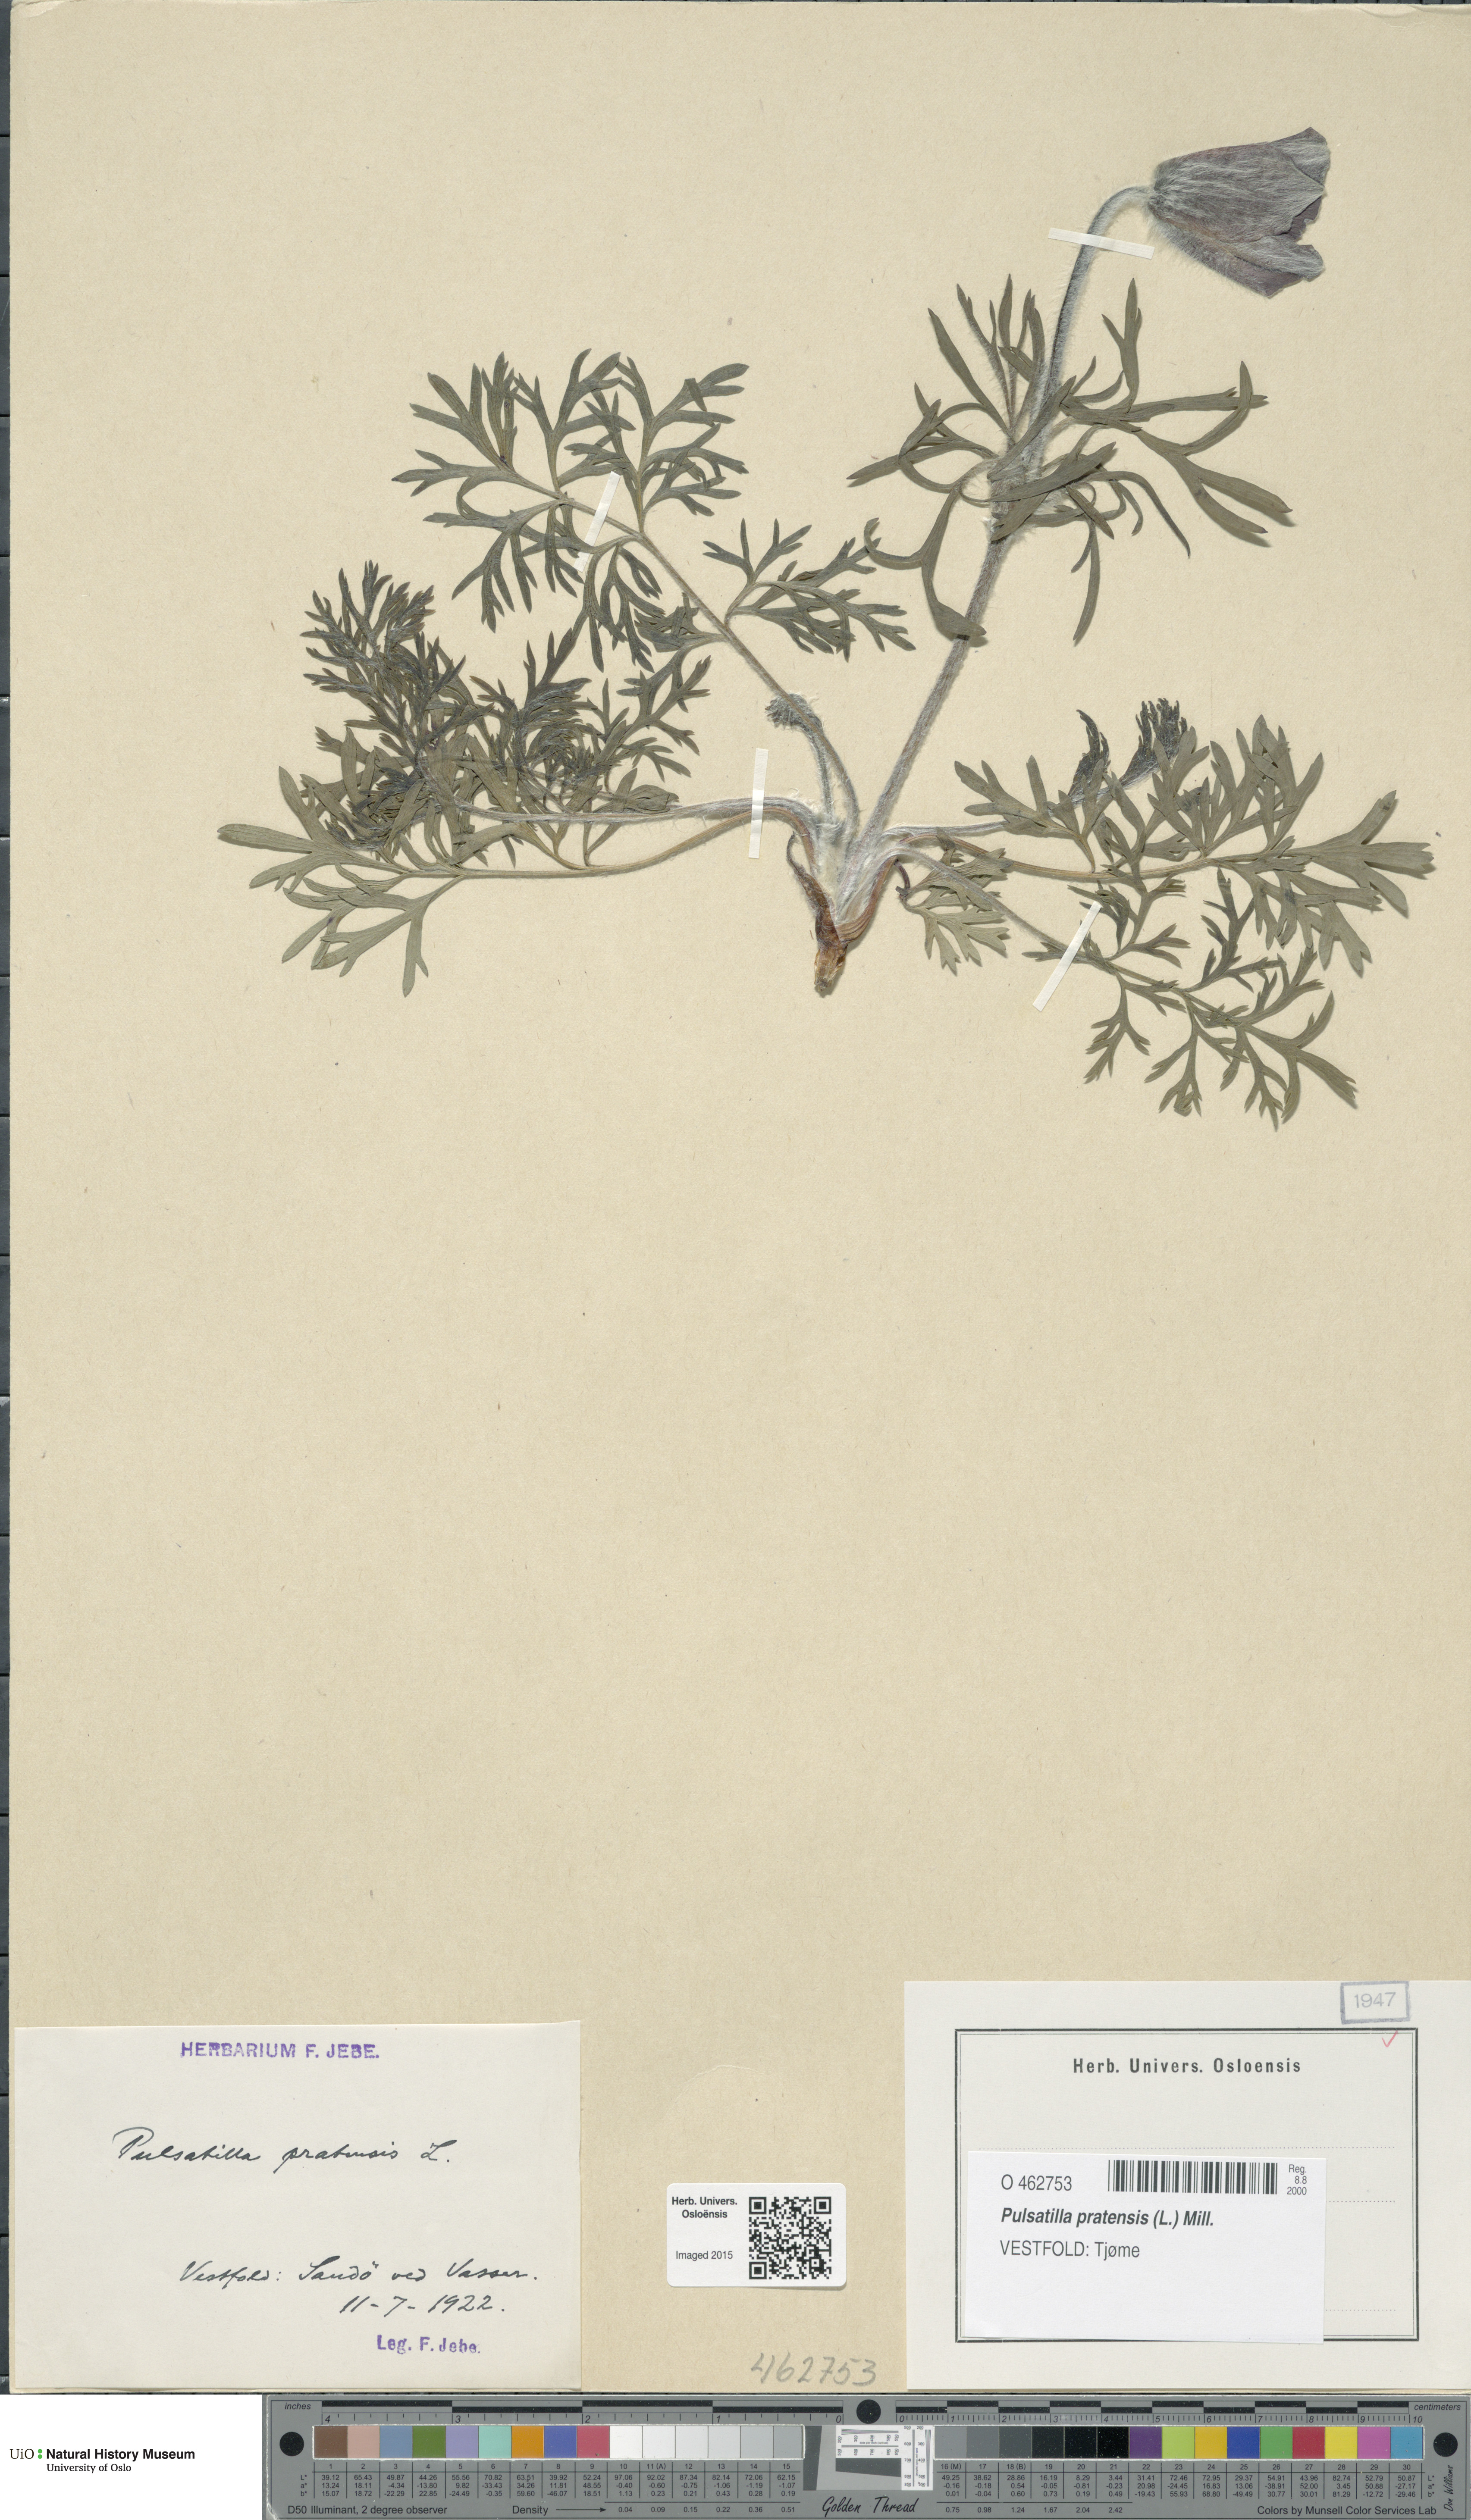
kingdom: Plantae
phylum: Tracheophyta
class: Magnoliopsida
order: Ranunculales
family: Ranunculaceae
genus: Pulsatilla
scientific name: Pulsatilla pratensis
